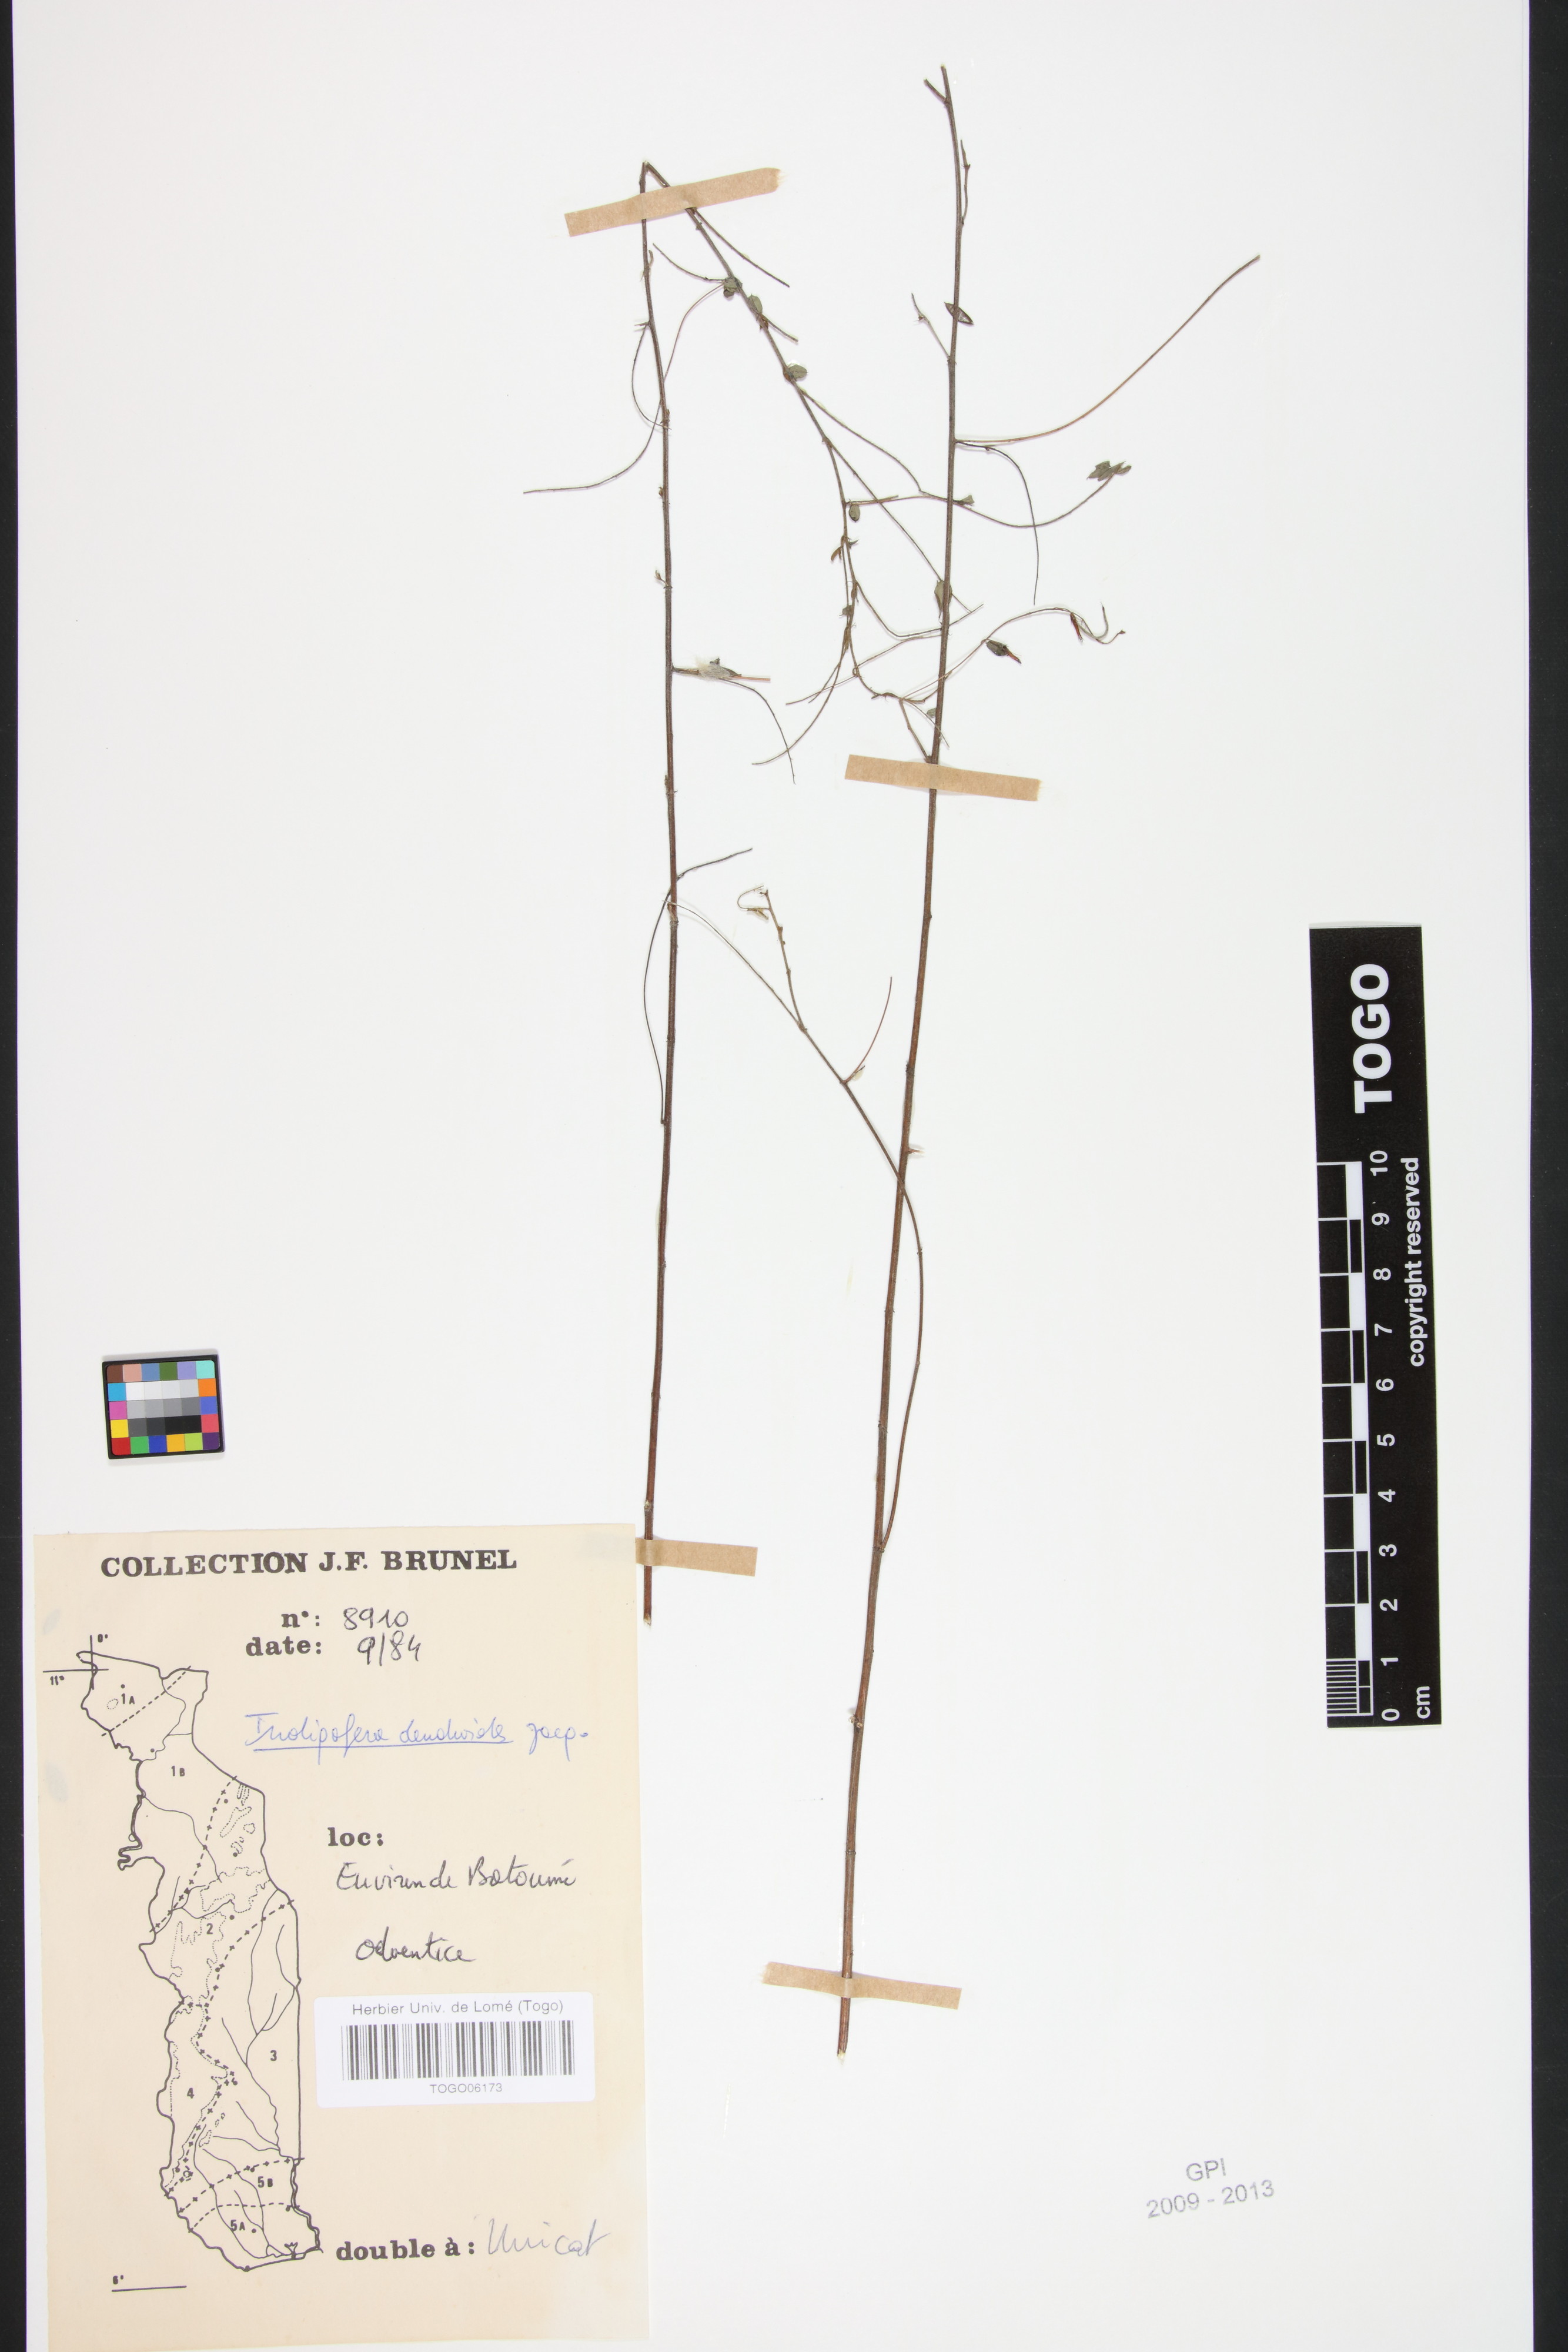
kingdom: Plantae
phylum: Tracheophyta
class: Magnoliopsida
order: Fabales
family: Fabaceae
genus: Indigofera
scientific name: Indigofera dendroides
